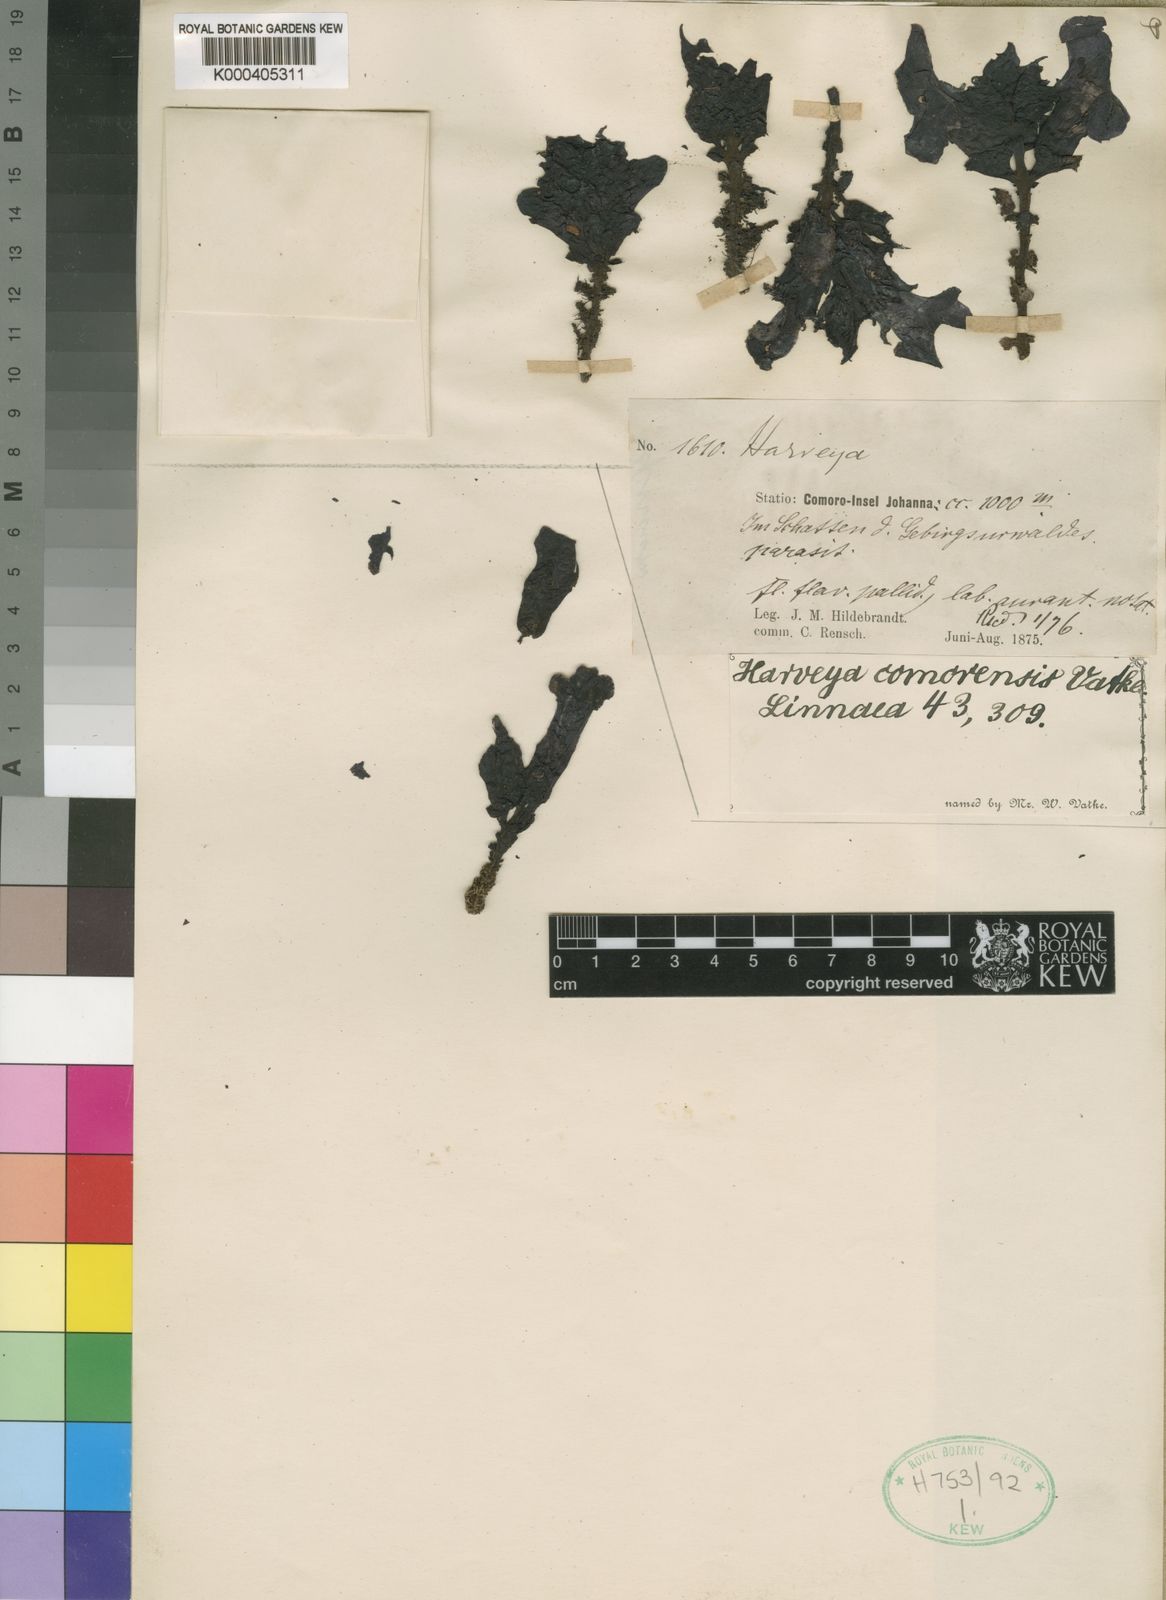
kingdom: Plantae
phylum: Tracheophyta
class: Magnoliopsida
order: Lamiales
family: Orobanchaceae
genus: Harveya
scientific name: Harveya comorensis
